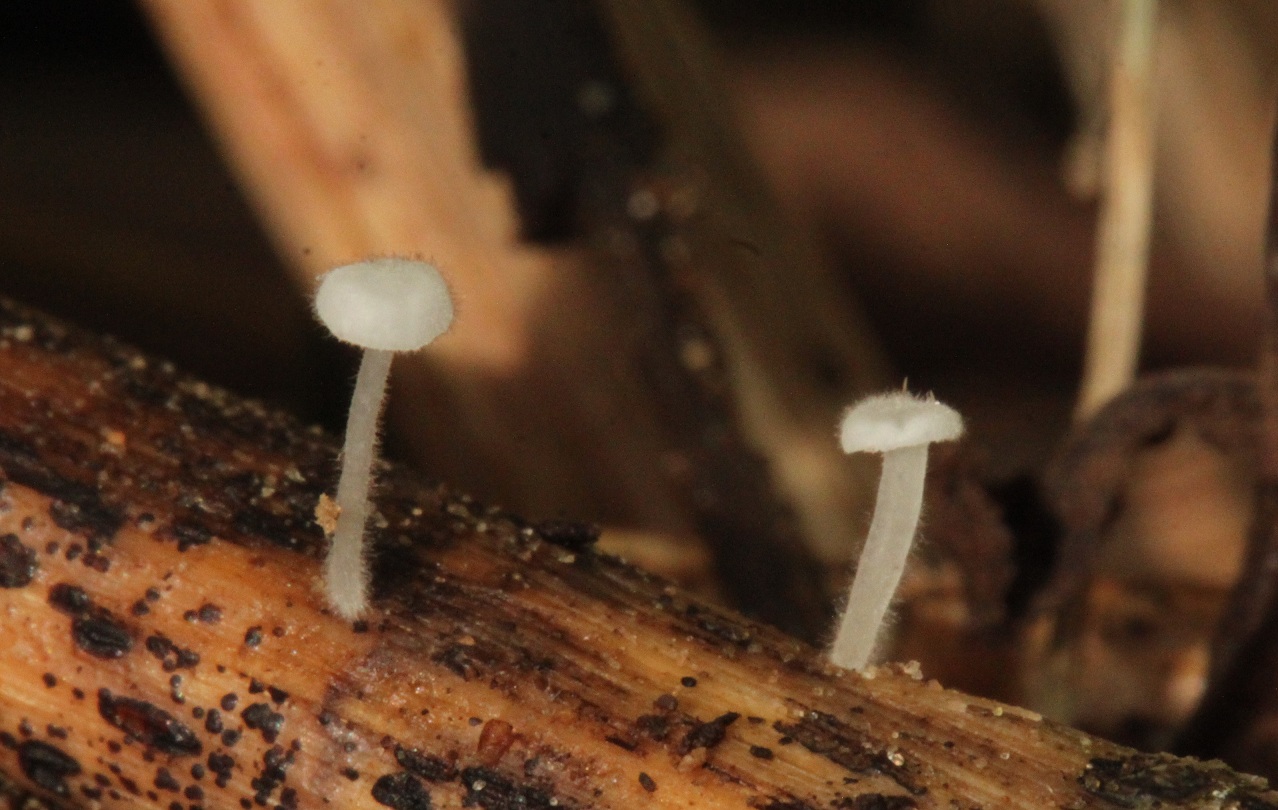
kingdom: Fungi
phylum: Basidiomycota
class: Agaricomycetes
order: Agaricales
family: Mycenaceae
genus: Hemimycena
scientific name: Hemimycena hirsuta
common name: håret huesvamp
